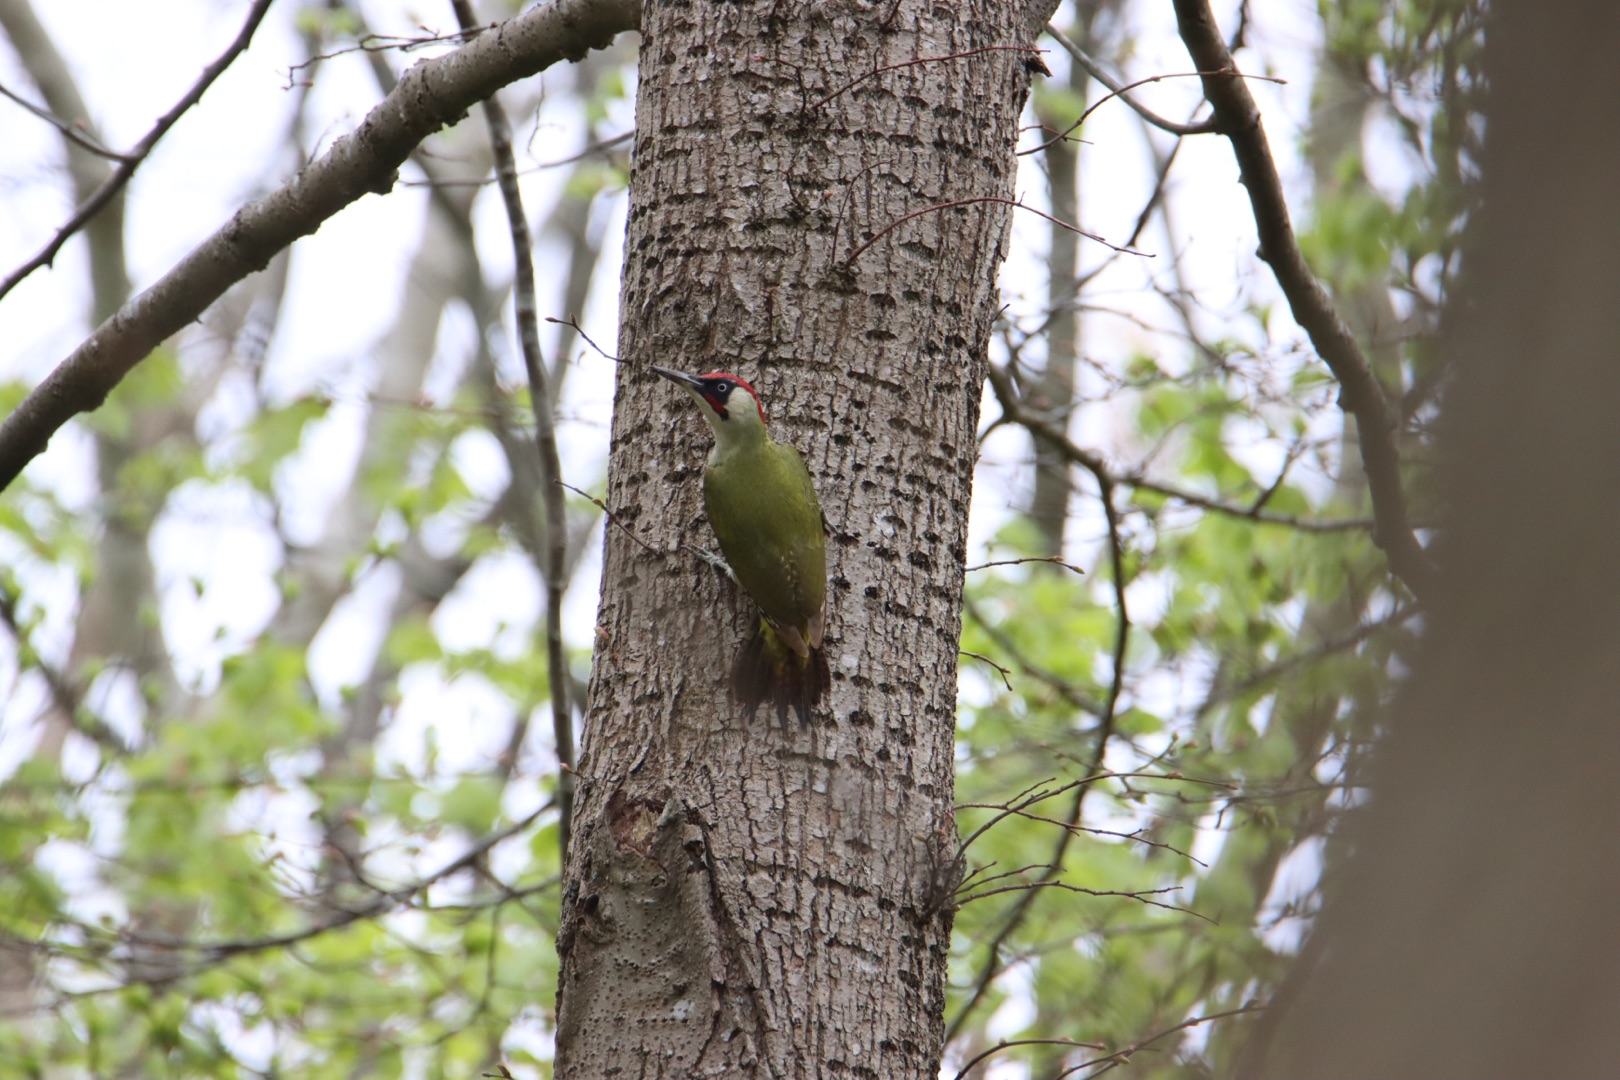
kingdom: Animalia
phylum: Chordata
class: Aves
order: Piciformes
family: Picidae
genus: Picus
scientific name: Picus viridis
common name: Grønspætte
